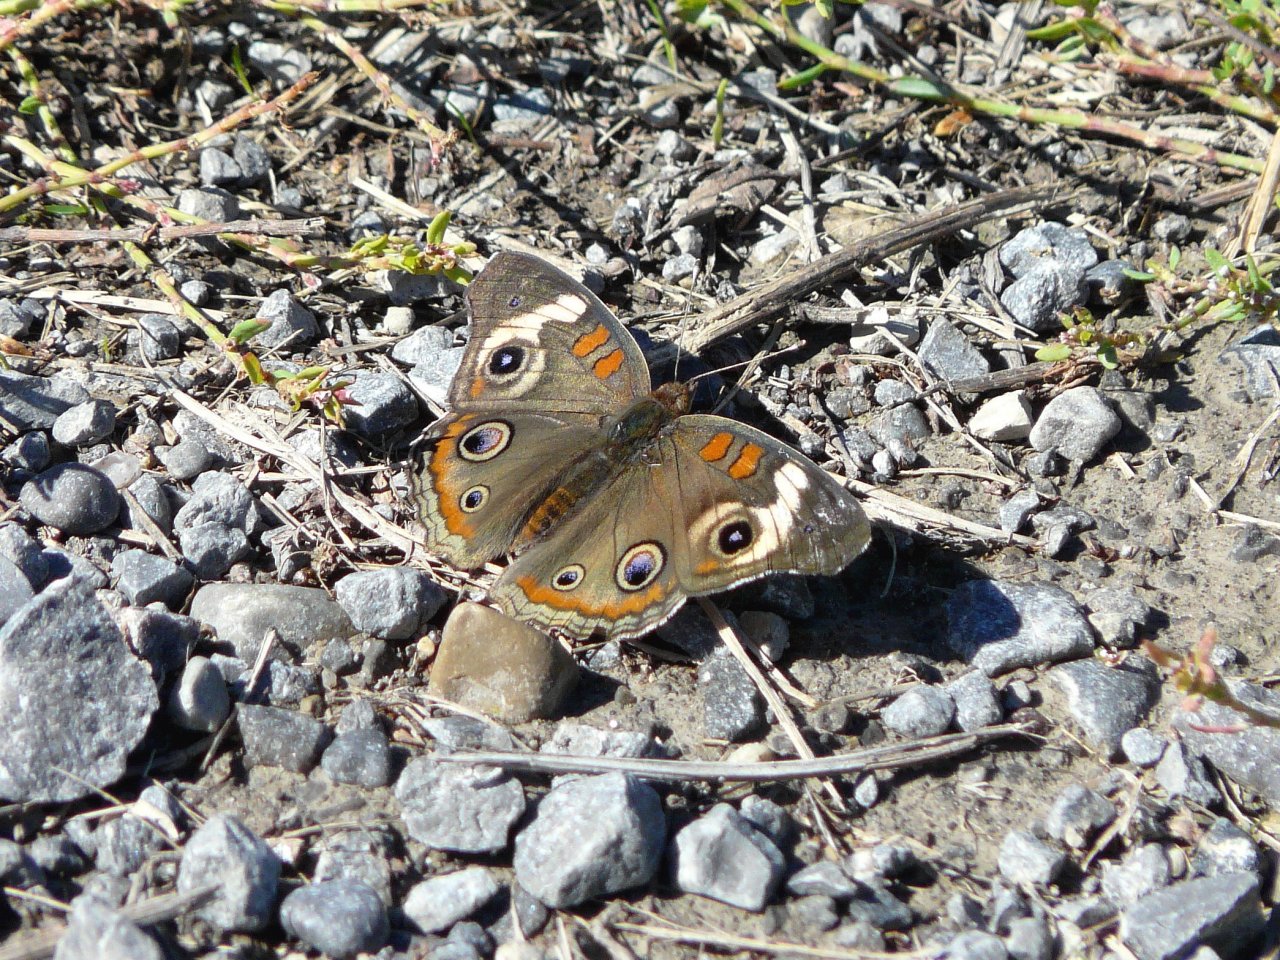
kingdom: Animalia
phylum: Arthropoda
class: Insecta
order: Lepidoptera
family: Nymphalidae
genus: Junonia
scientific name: Junonia coenia
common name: Common Buckeye
